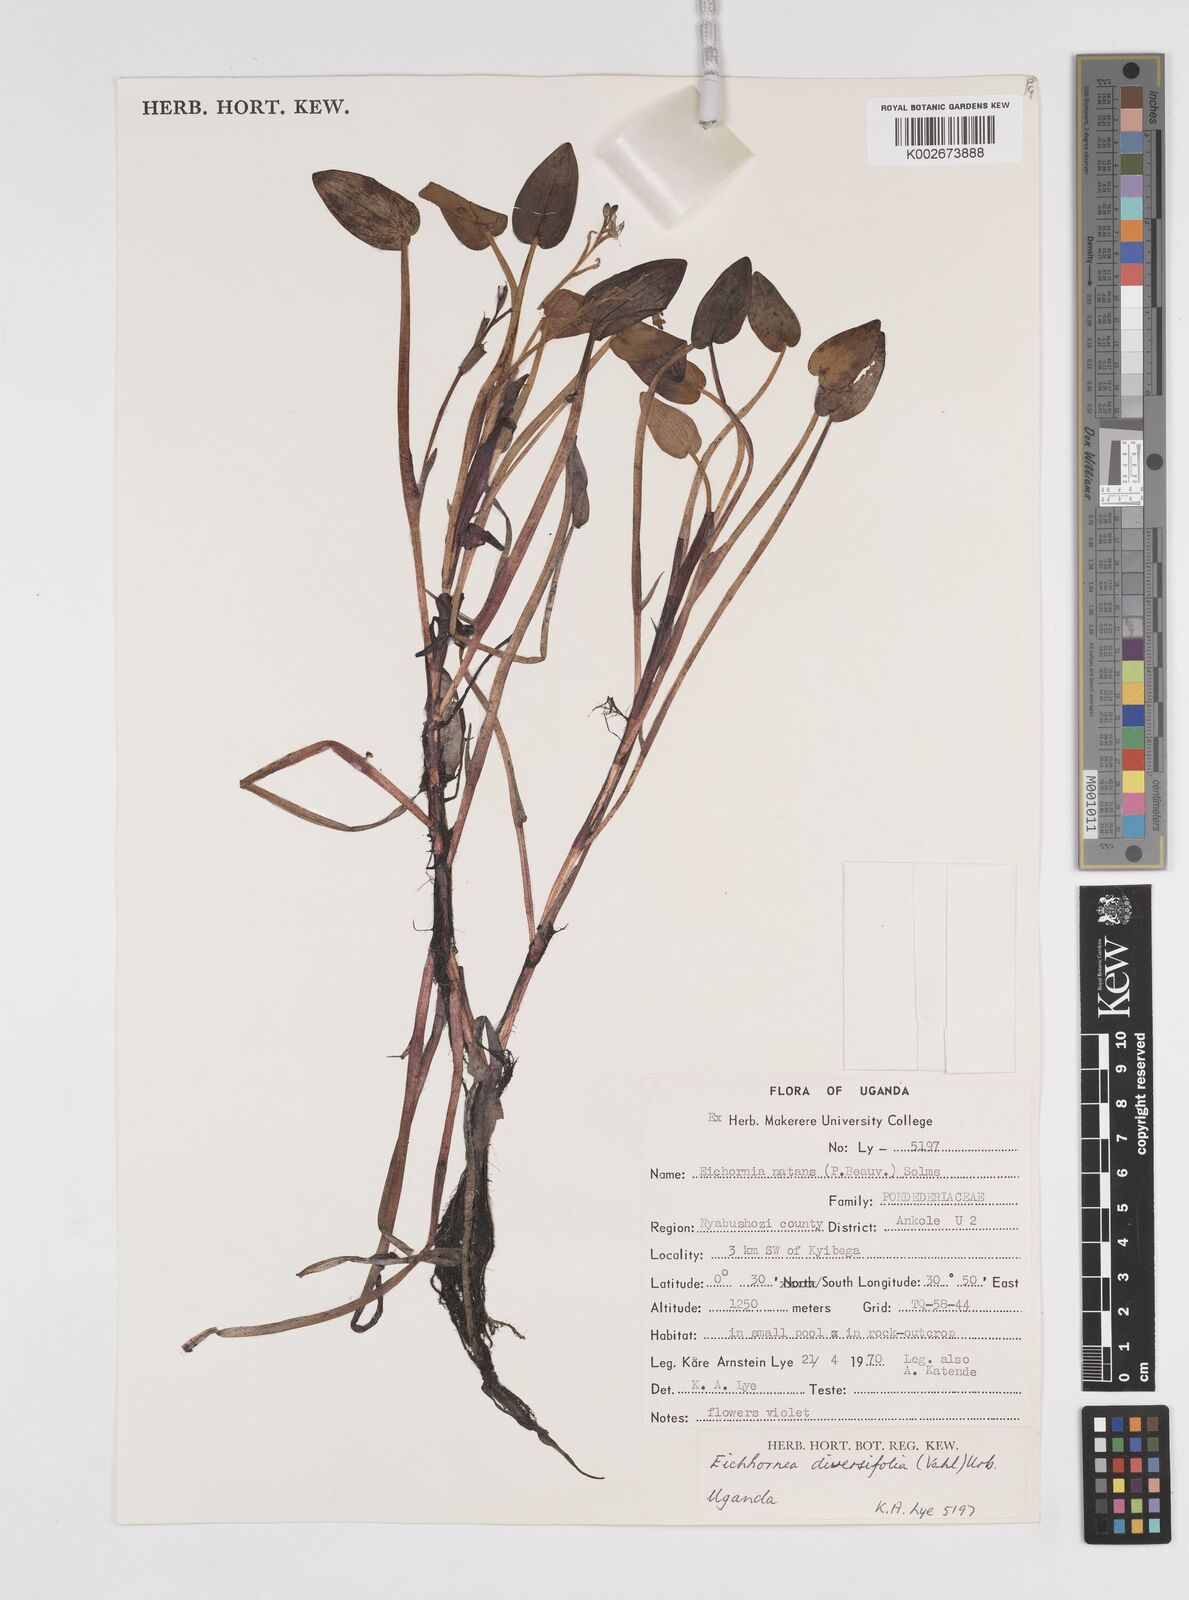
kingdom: Plantae
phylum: Tracheophyta
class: Liliopsida
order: Commelinales
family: Pontederiaceae
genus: Pontederia
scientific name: Pontederia diversifolia
